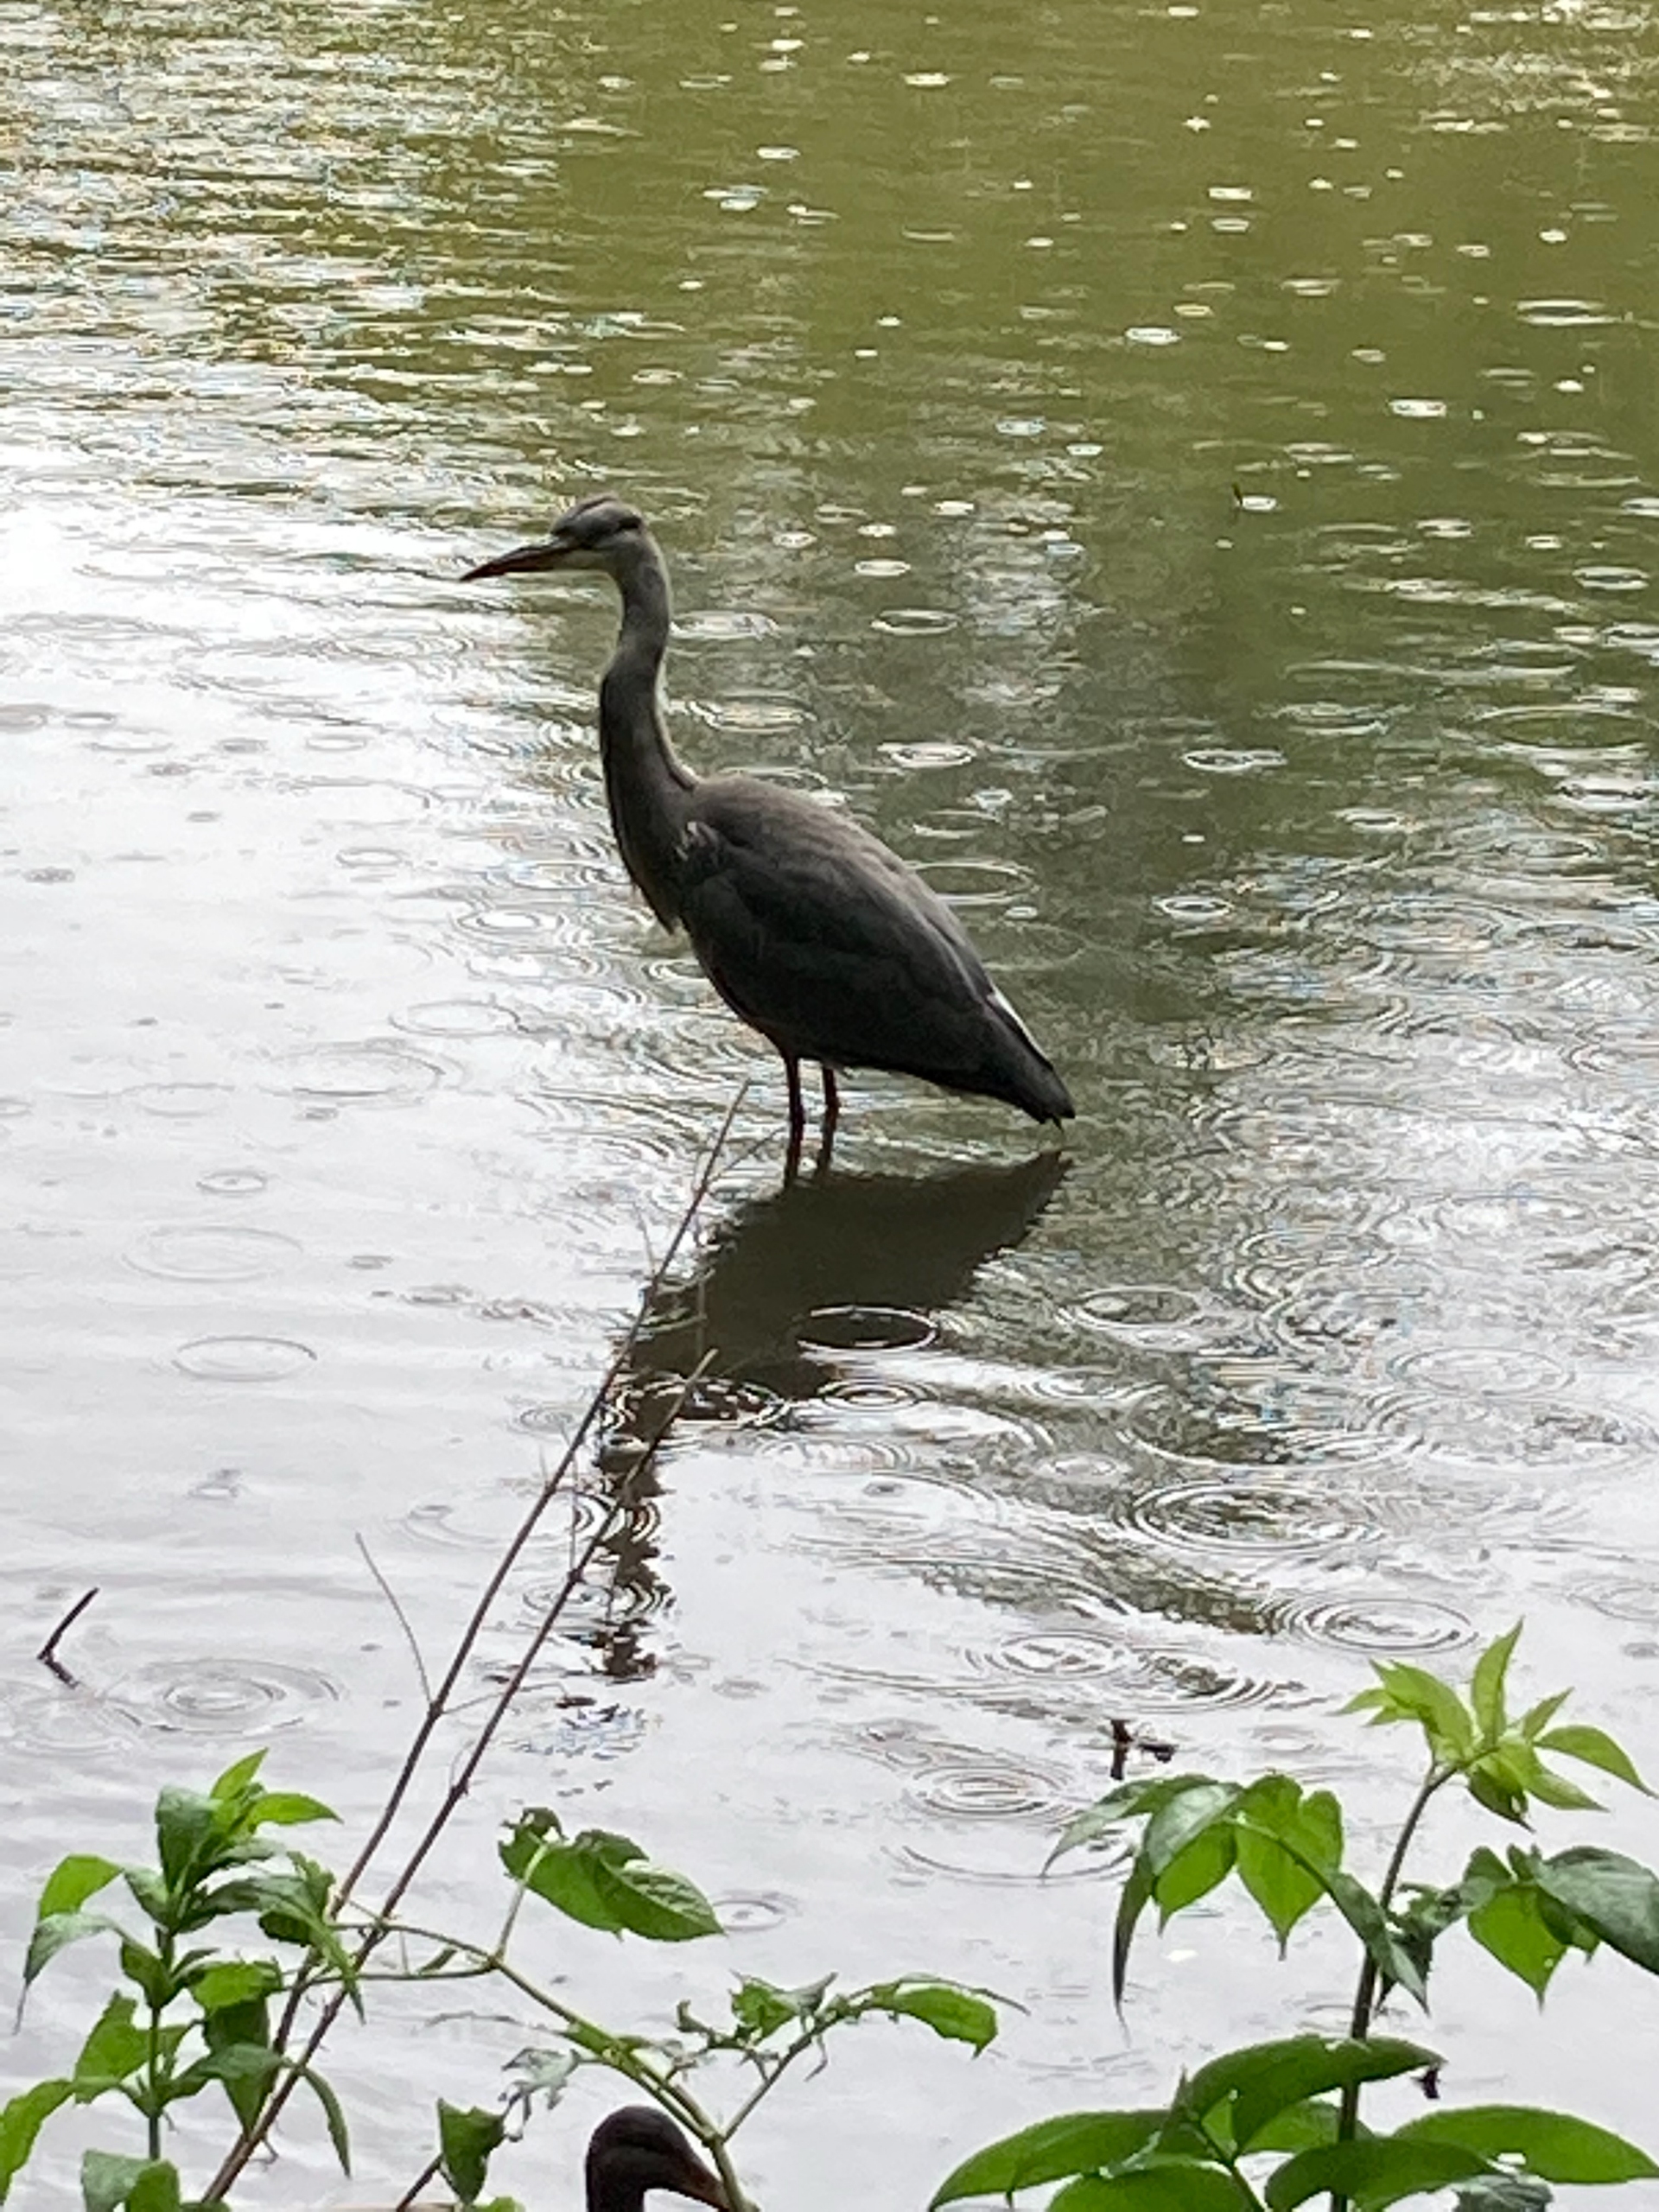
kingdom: Animalia
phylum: Chordata
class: Aves
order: Pelecaniformes
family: Ardeidae
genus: Ardea
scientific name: Ardea cinerea
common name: Fiskehejre
